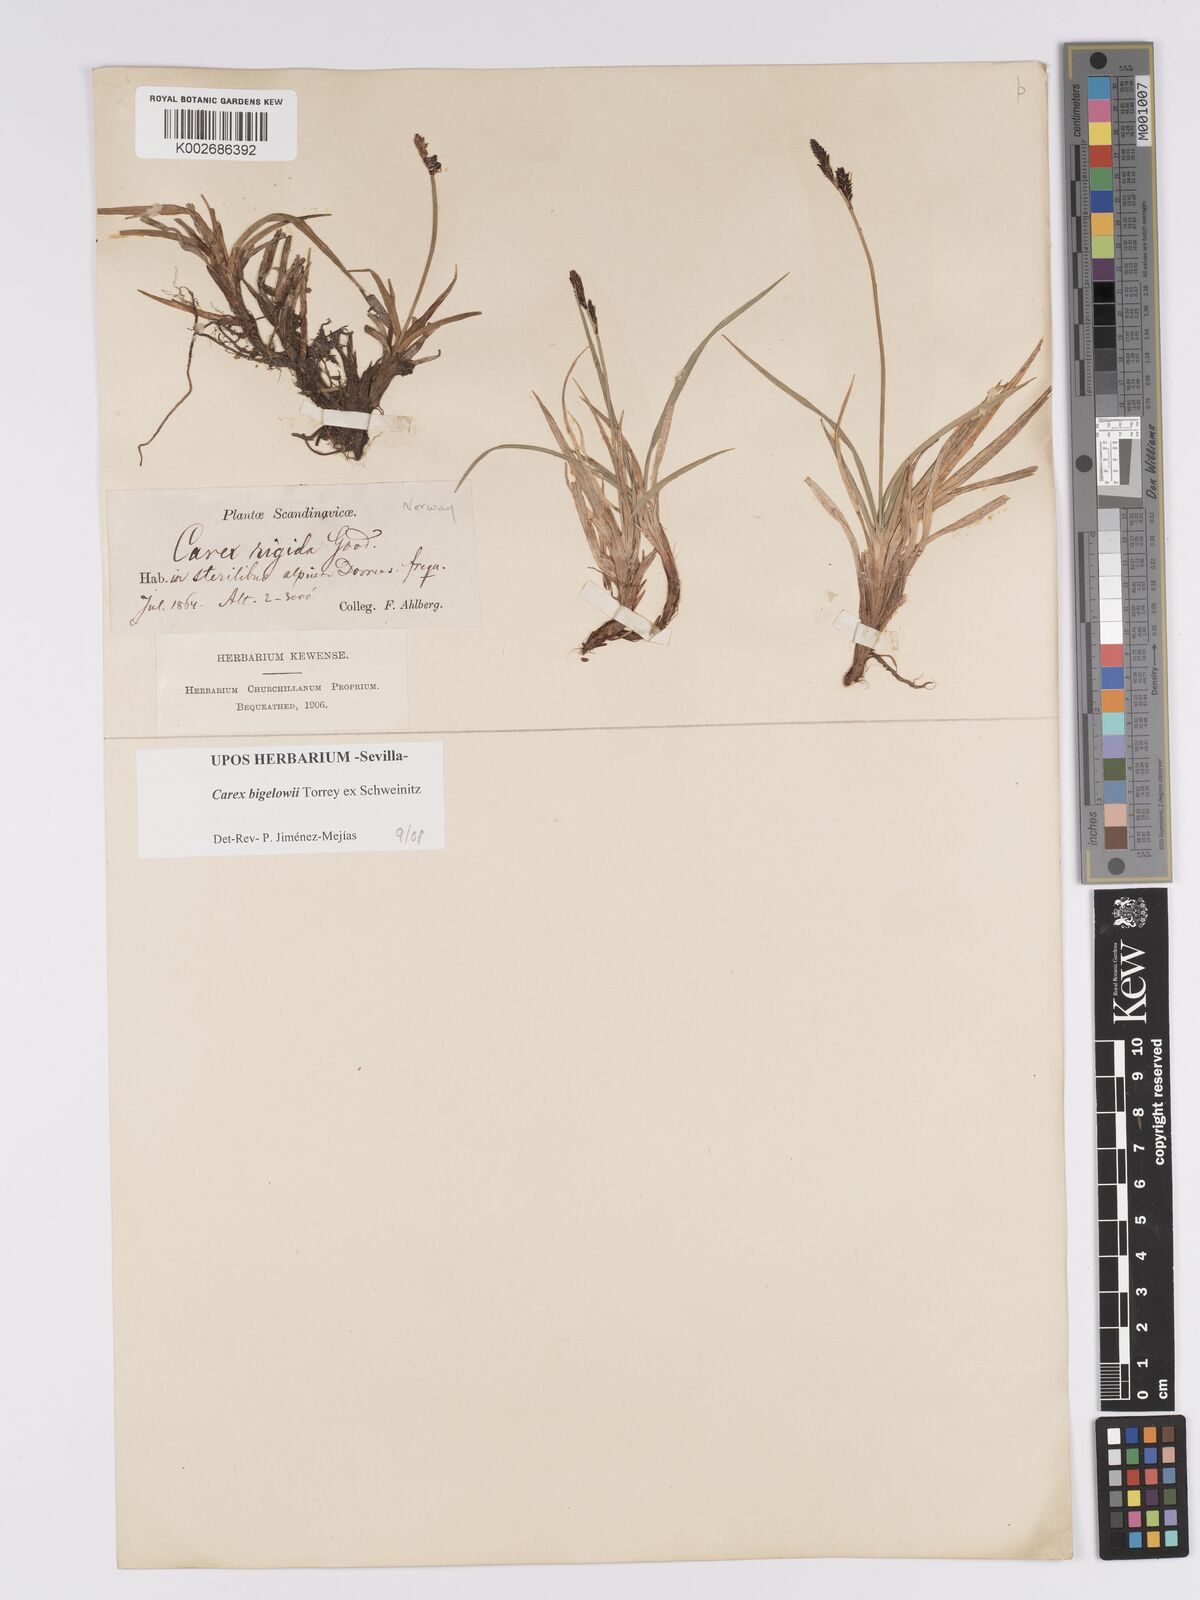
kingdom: Plantae
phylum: Tracheophyta
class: Liliopsida
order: Poales
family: Cyperaceae
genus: Carex
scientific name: Carex bigelowii
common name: Stiff sedge
